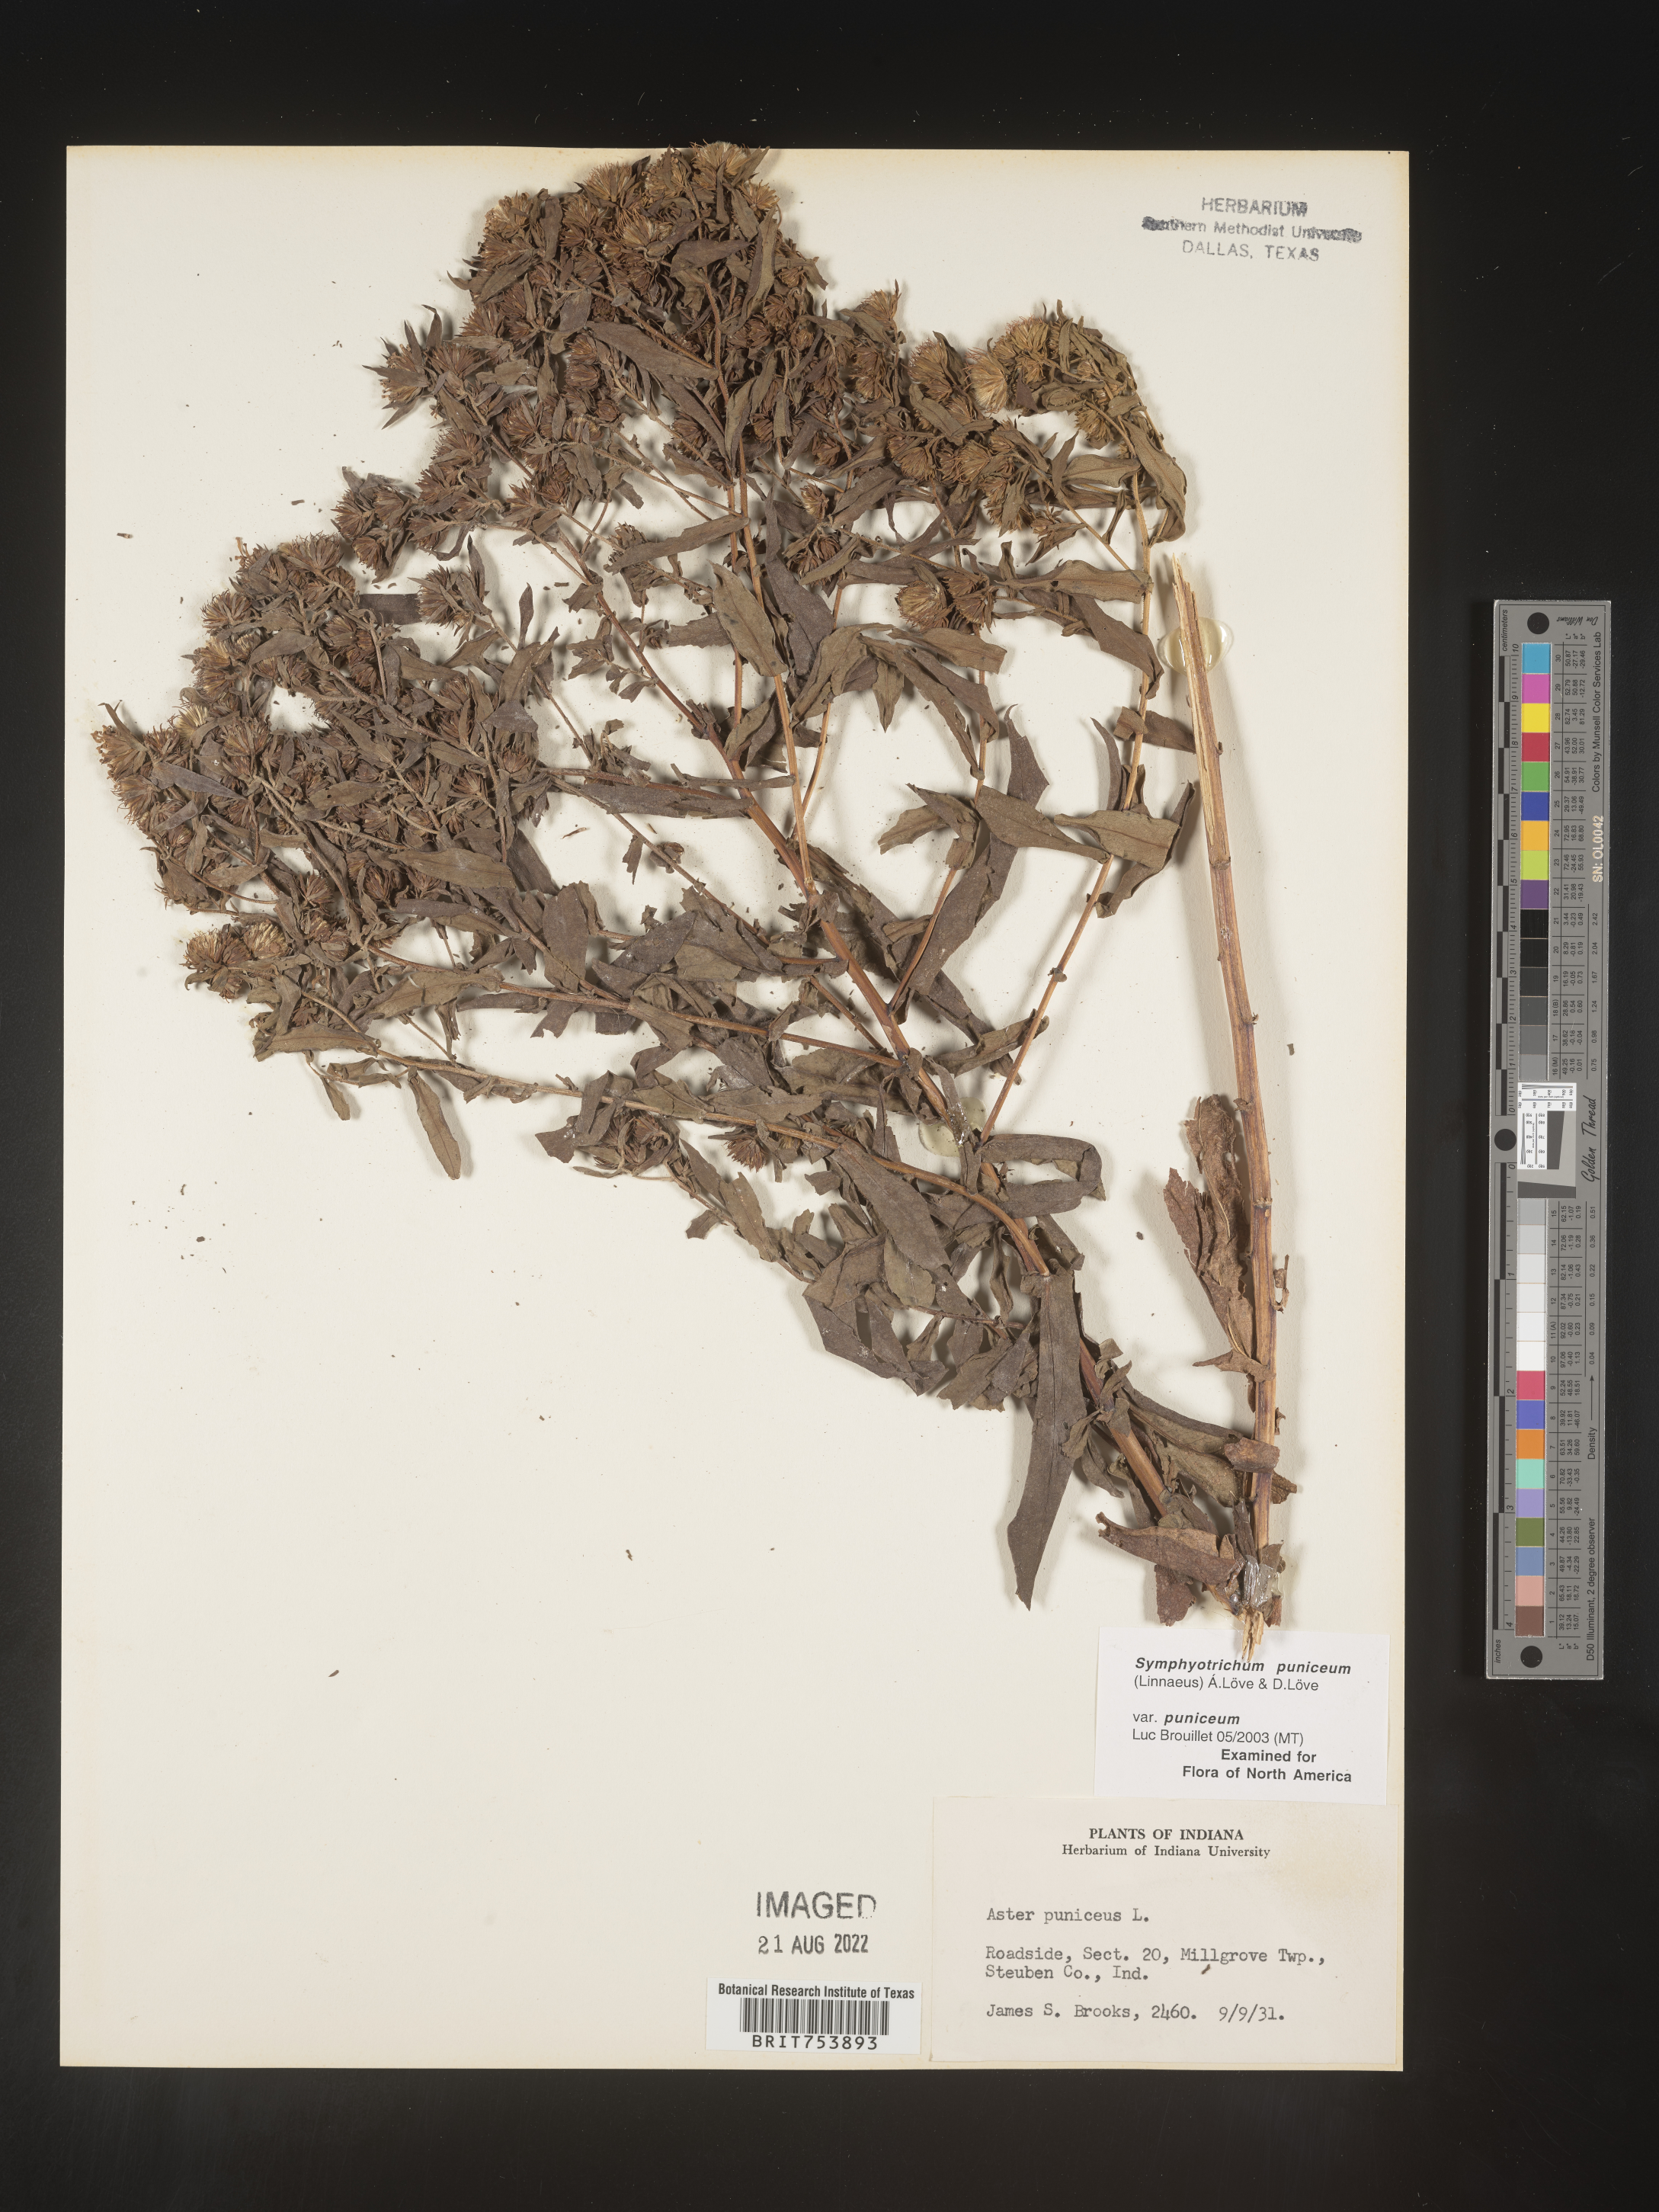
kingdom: Plantae
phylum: Tracheophyta
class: Magnoliopsida
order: Asterales
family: Asteraceae
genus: Symphyotrichum
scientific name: Symphyotrichum puniceum
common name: Bog aster
